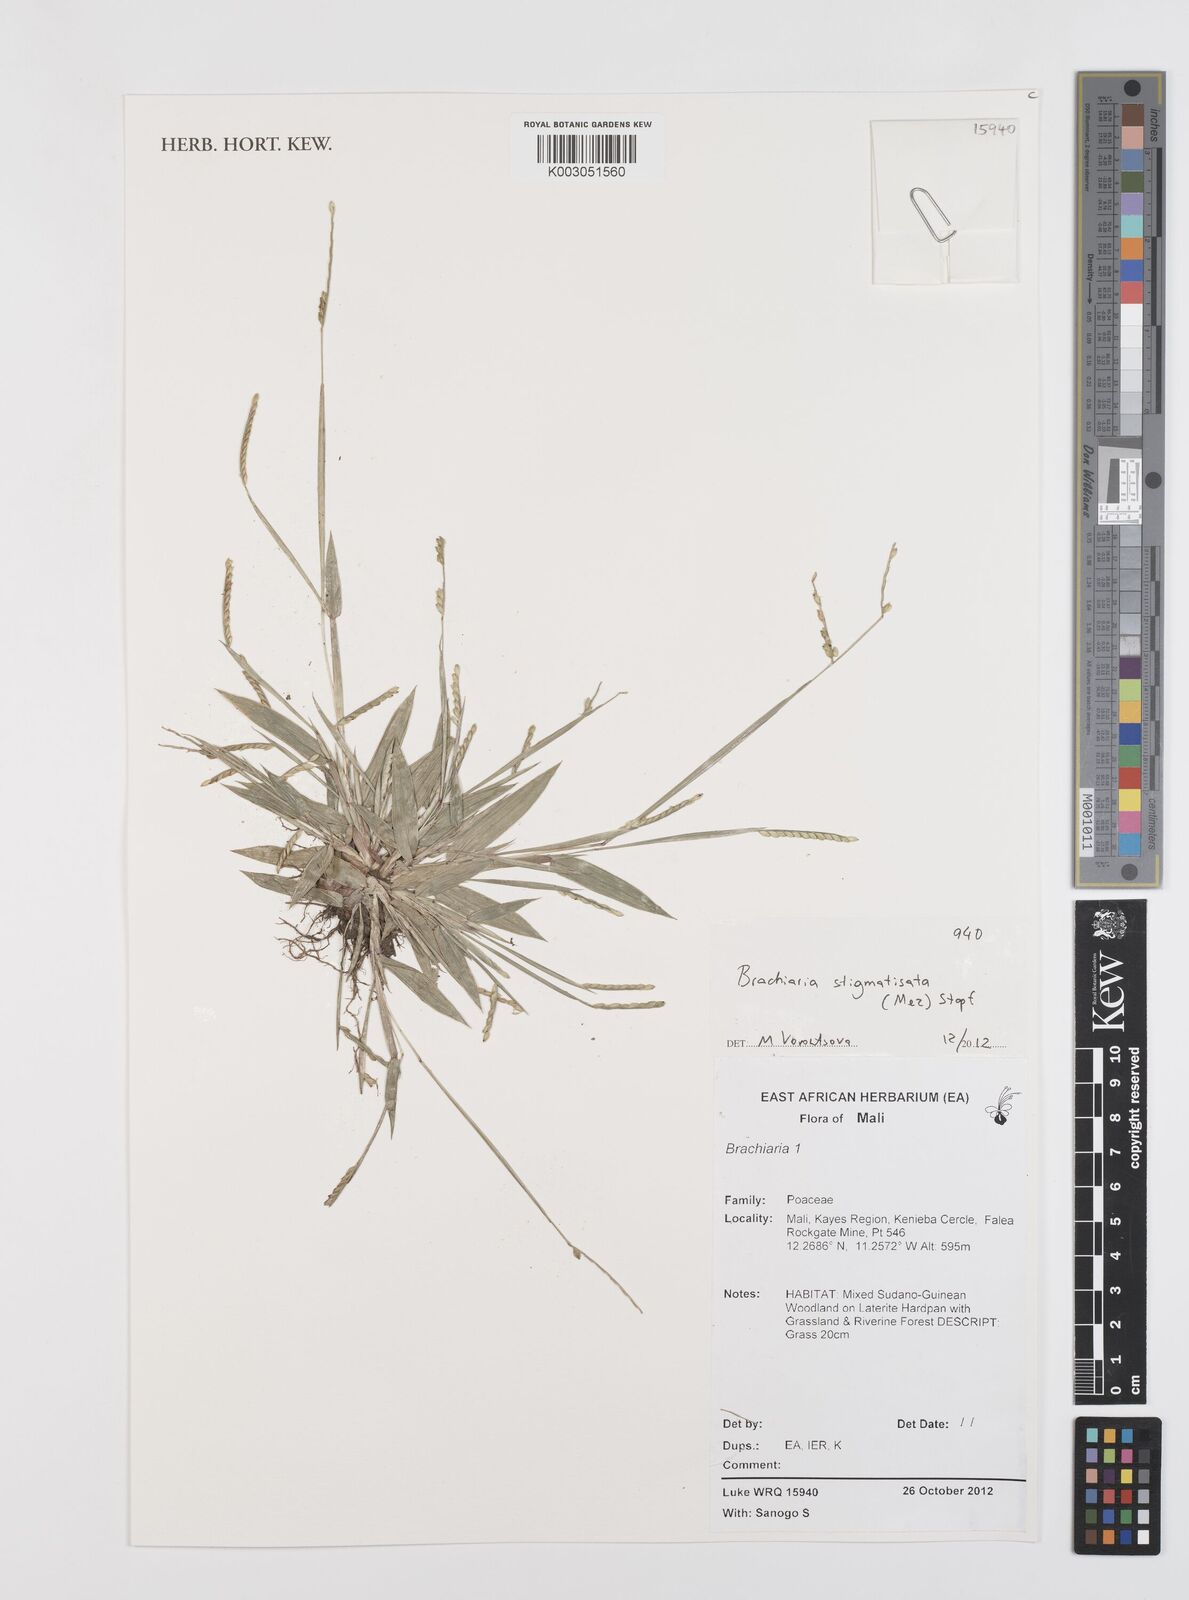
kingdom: Plantae
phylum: Tracheophyta
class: Liliopsida
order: Poales
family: Poaceae
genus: Urochloa
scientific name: Urochloa stigmatisata
